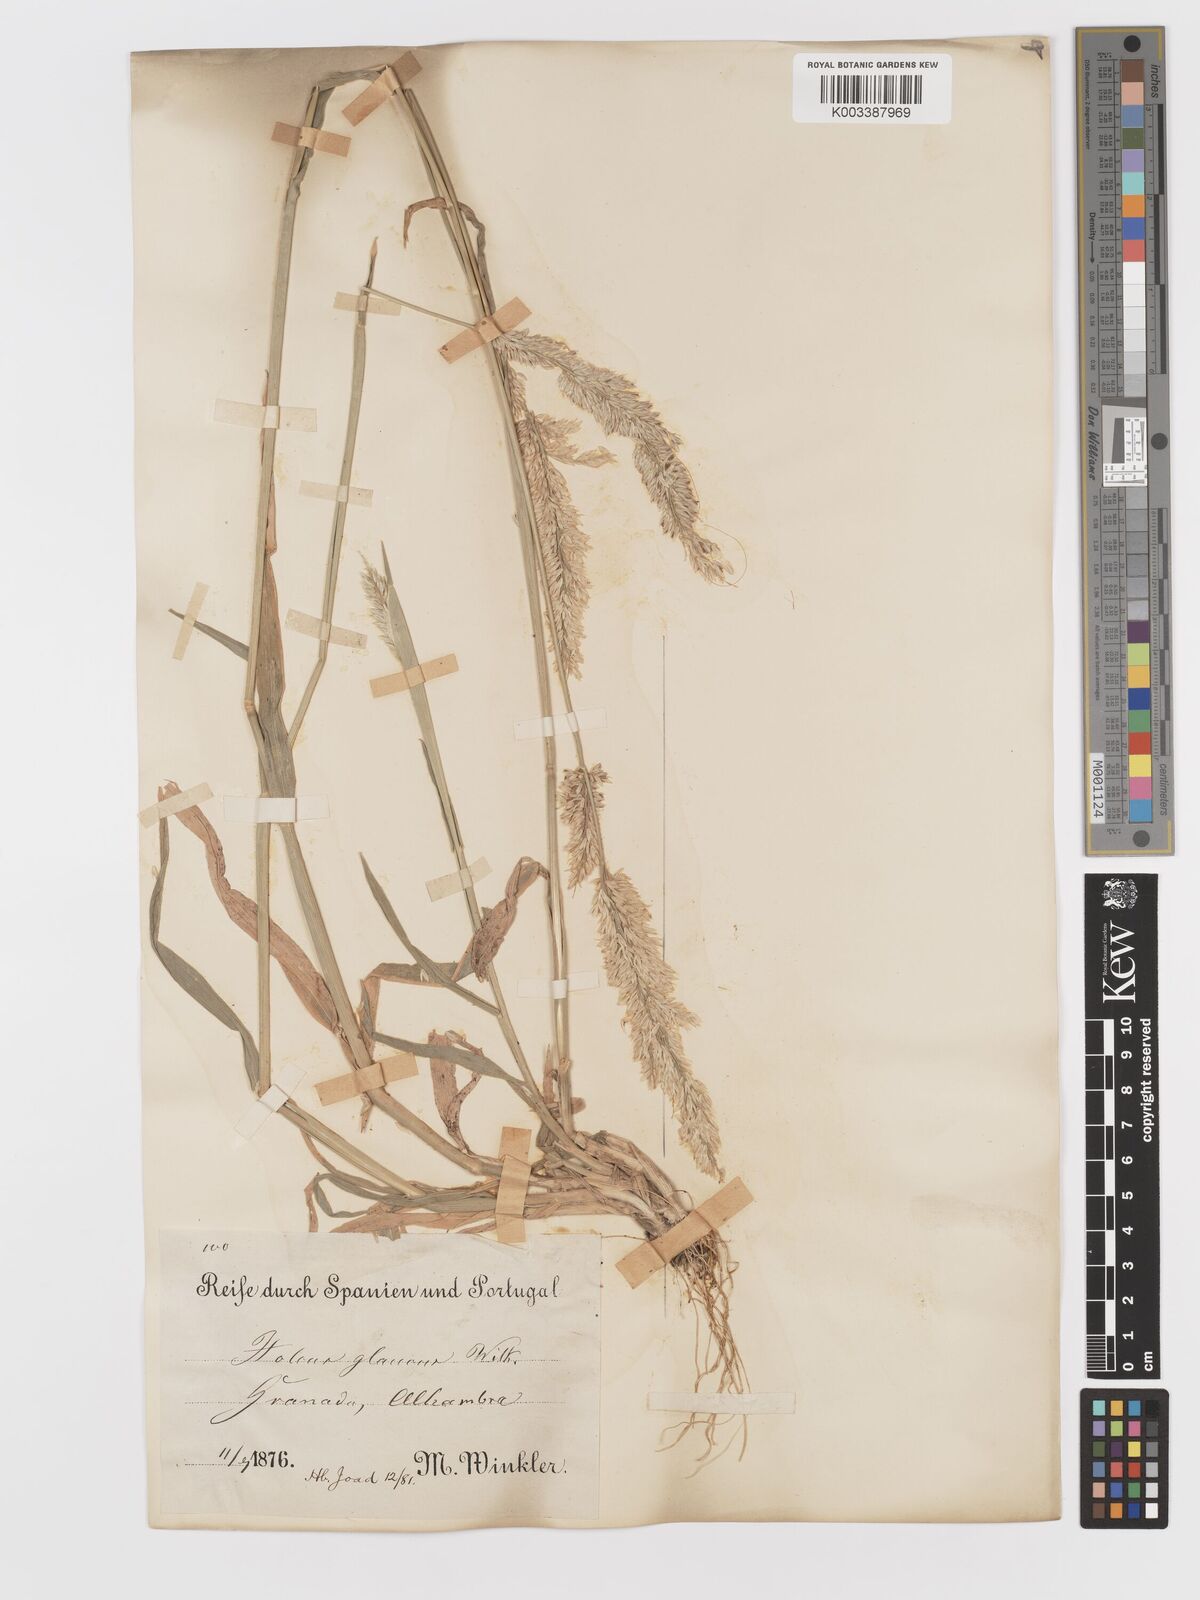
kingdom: Plantae
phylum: Tracheophyta
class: Liliopsida
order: Poales
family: Poaceae
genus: Holcus
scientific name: Holcus lanatus
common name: Yorkshire-fog
